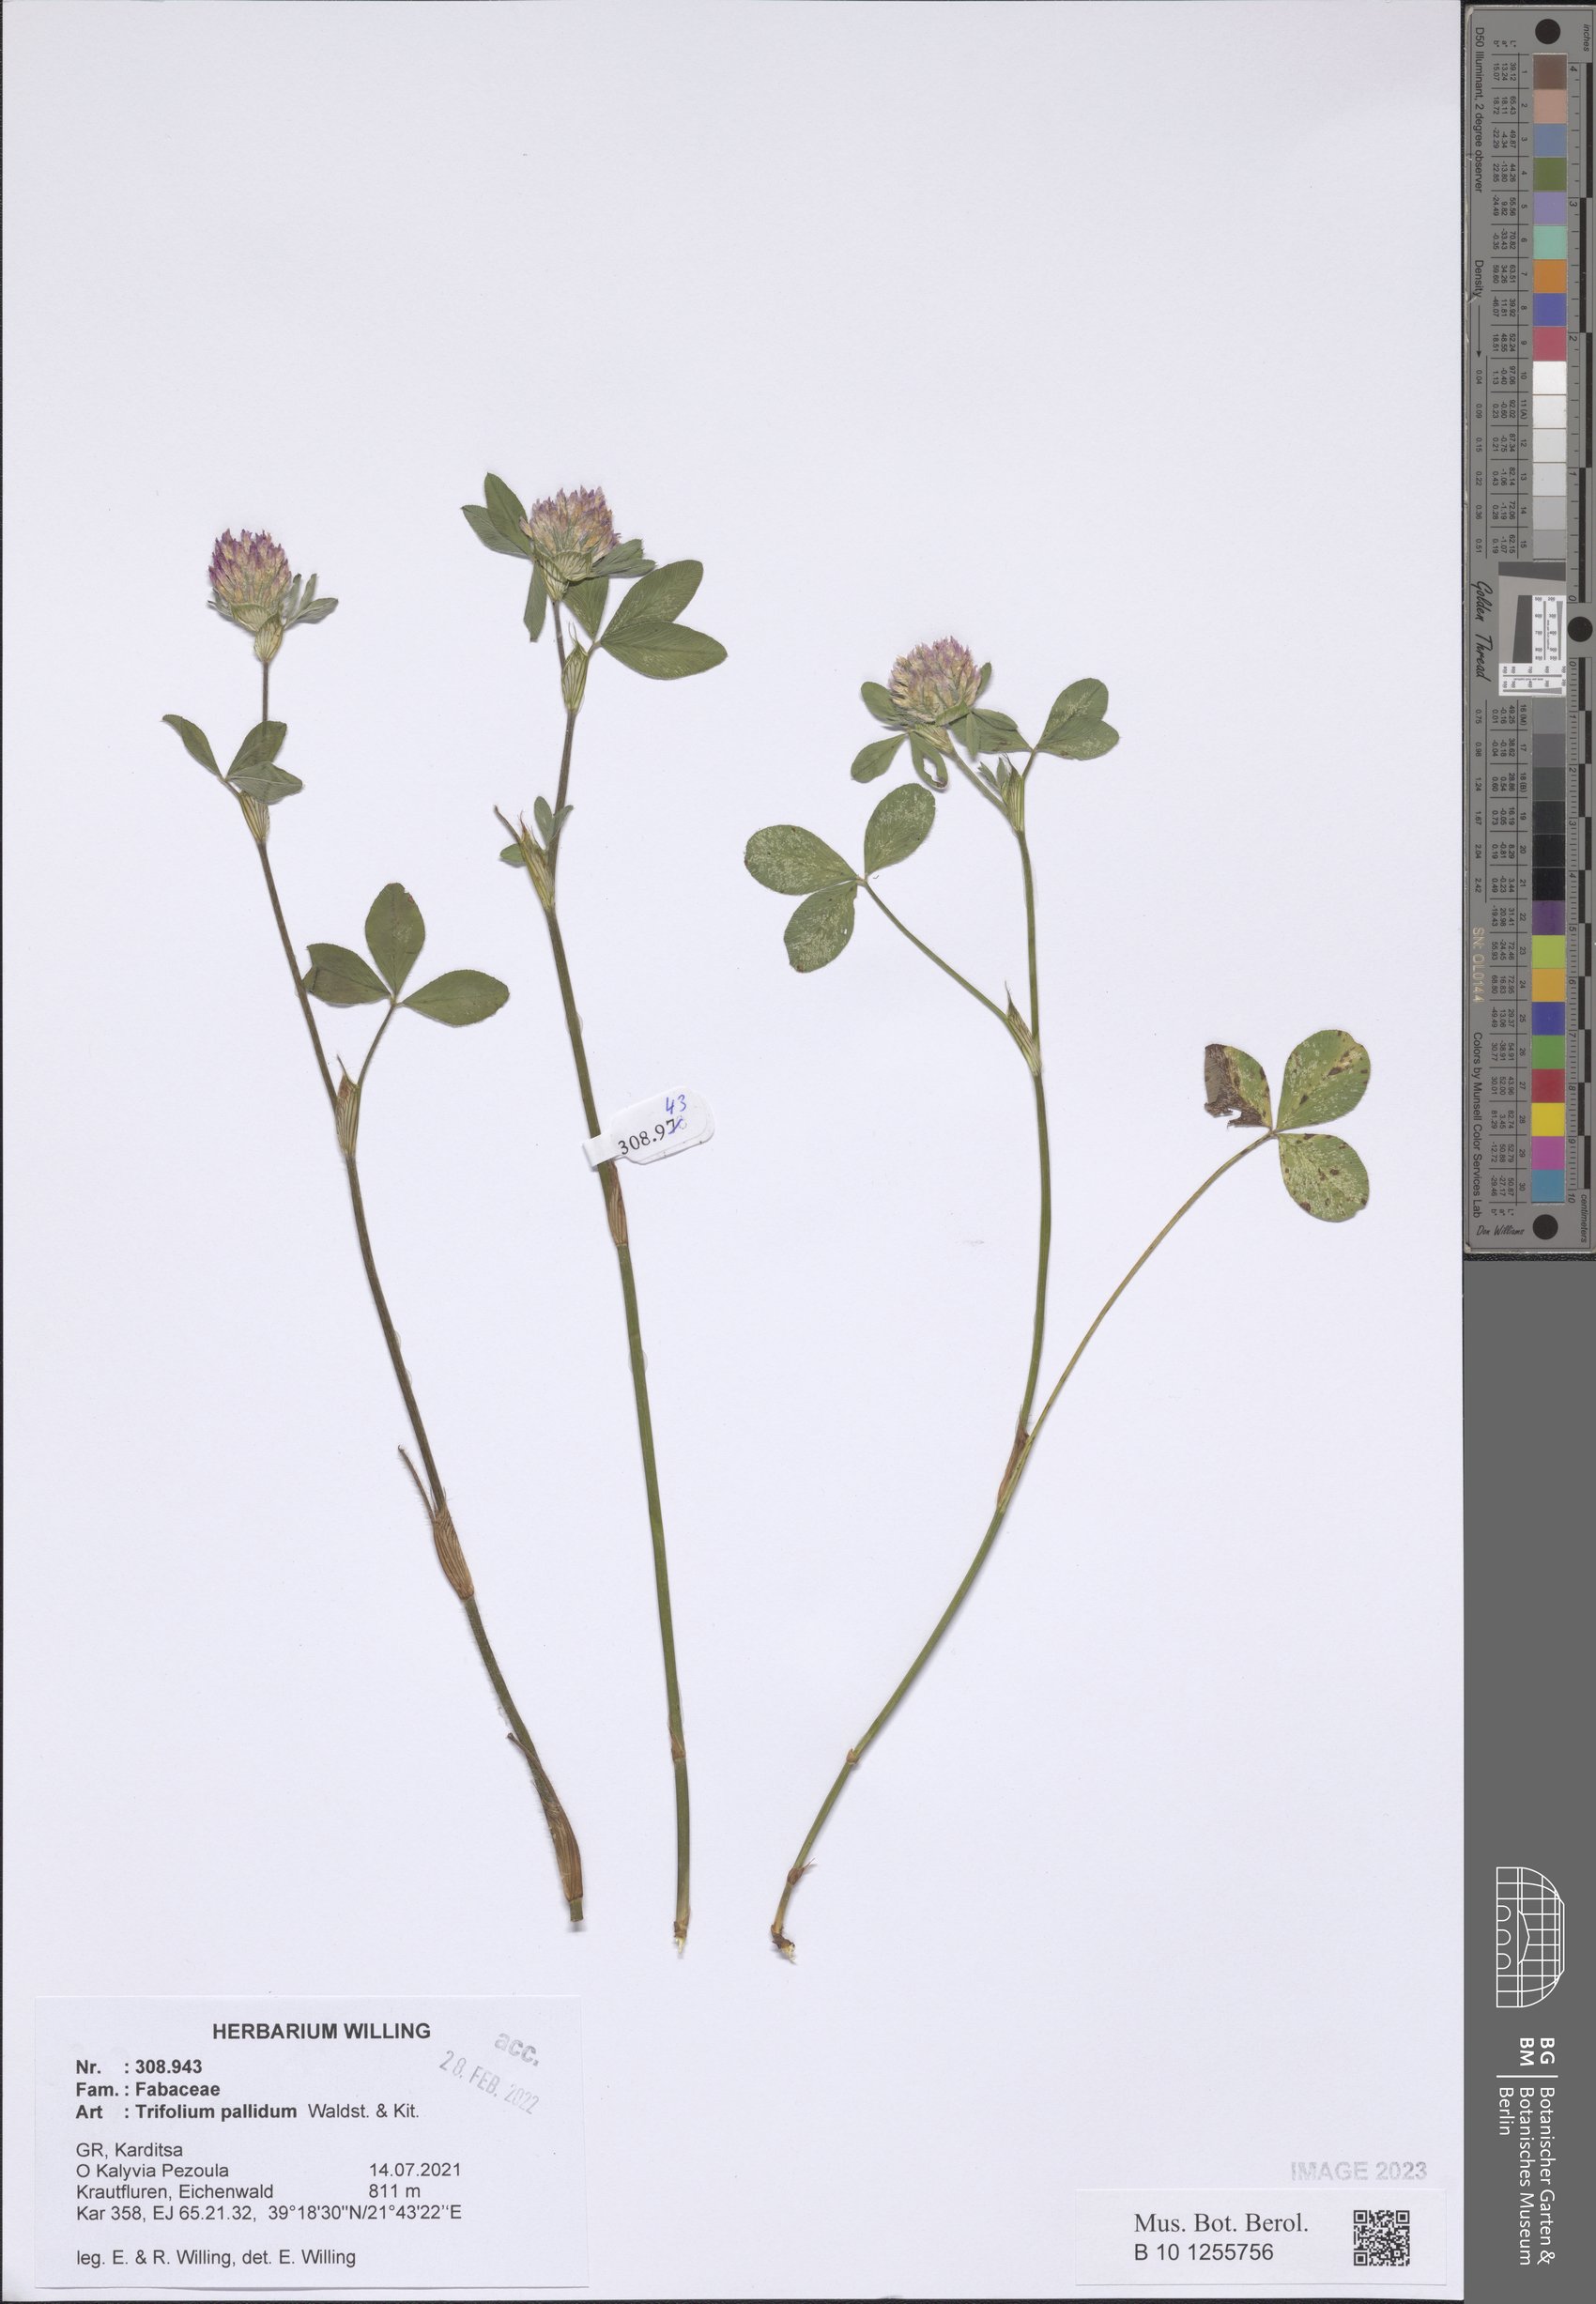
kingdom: Plantae
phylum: Tracheophyta
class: Magnoliopsida
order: Fabales
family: Fabaceae
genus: Trifolium
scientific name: Trifolium pallidum
